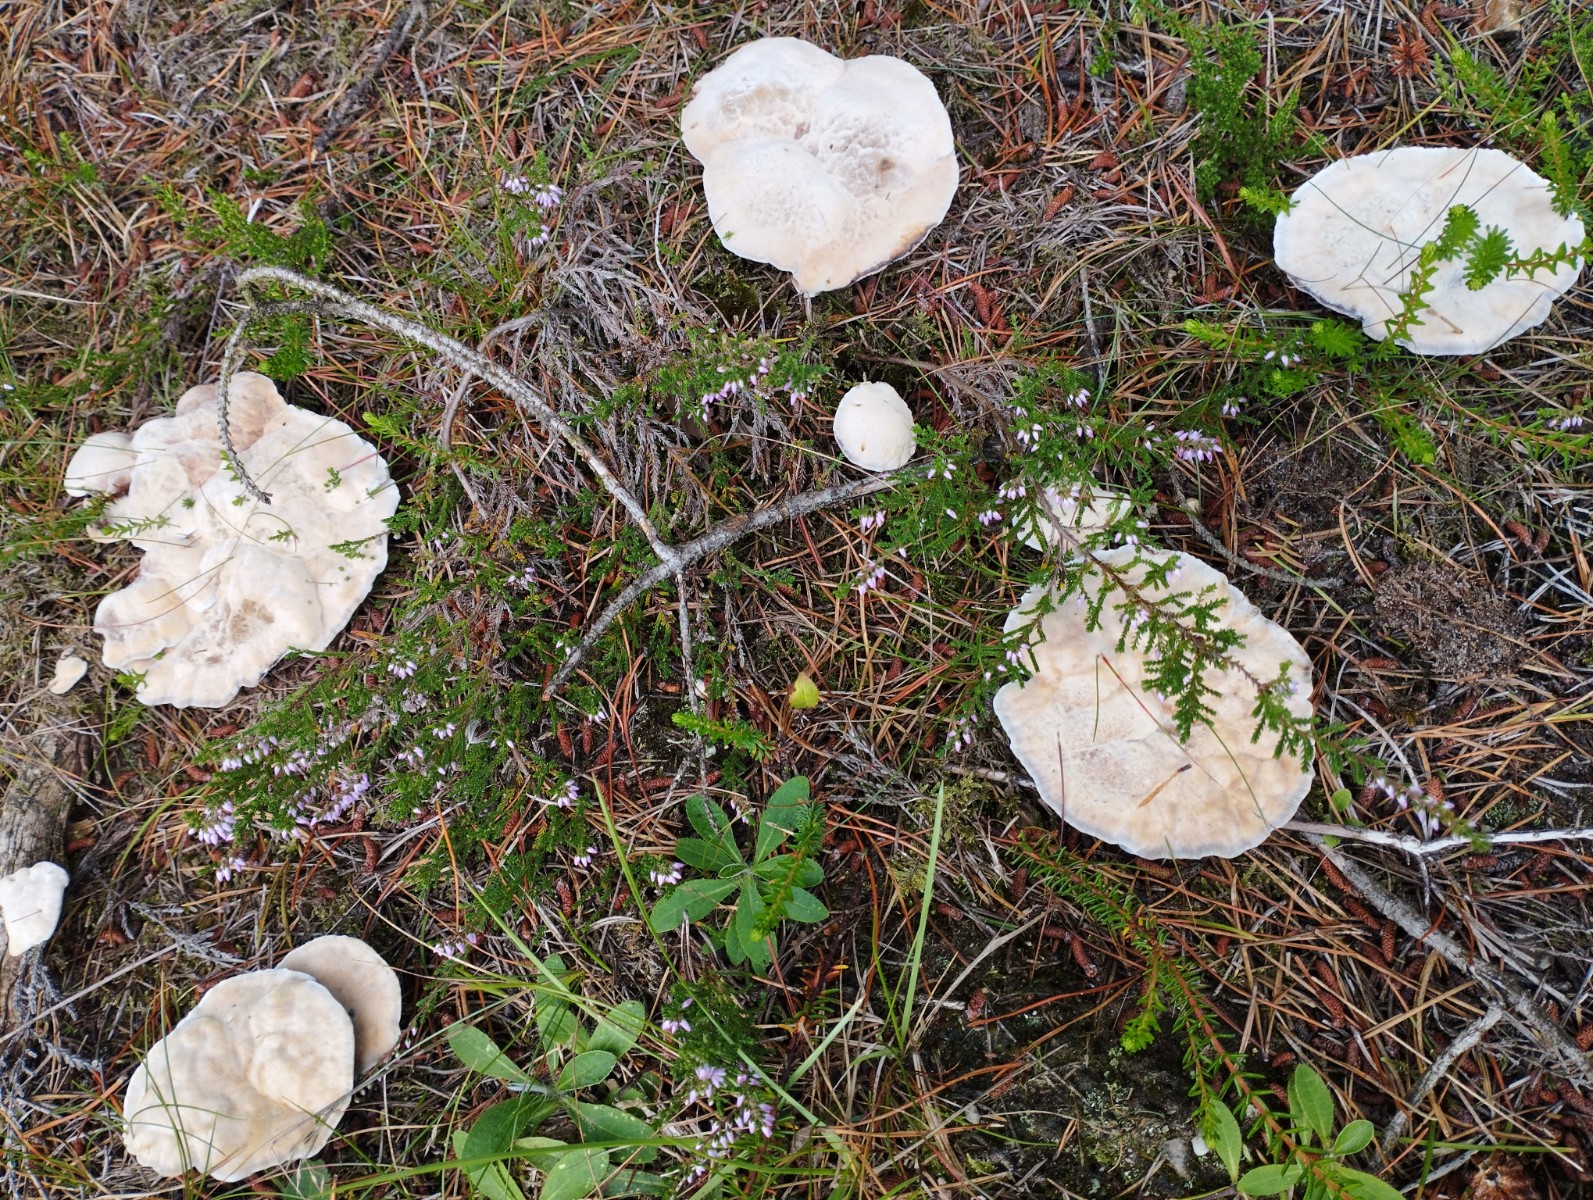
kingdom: Fungi
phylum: Basidiomycota
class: Agaricomycetes
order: Thelephorales
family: Bankeraceae
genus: Hydnellum
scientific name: Hydnellum caeruleum
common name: blålig korkpigsvamp
